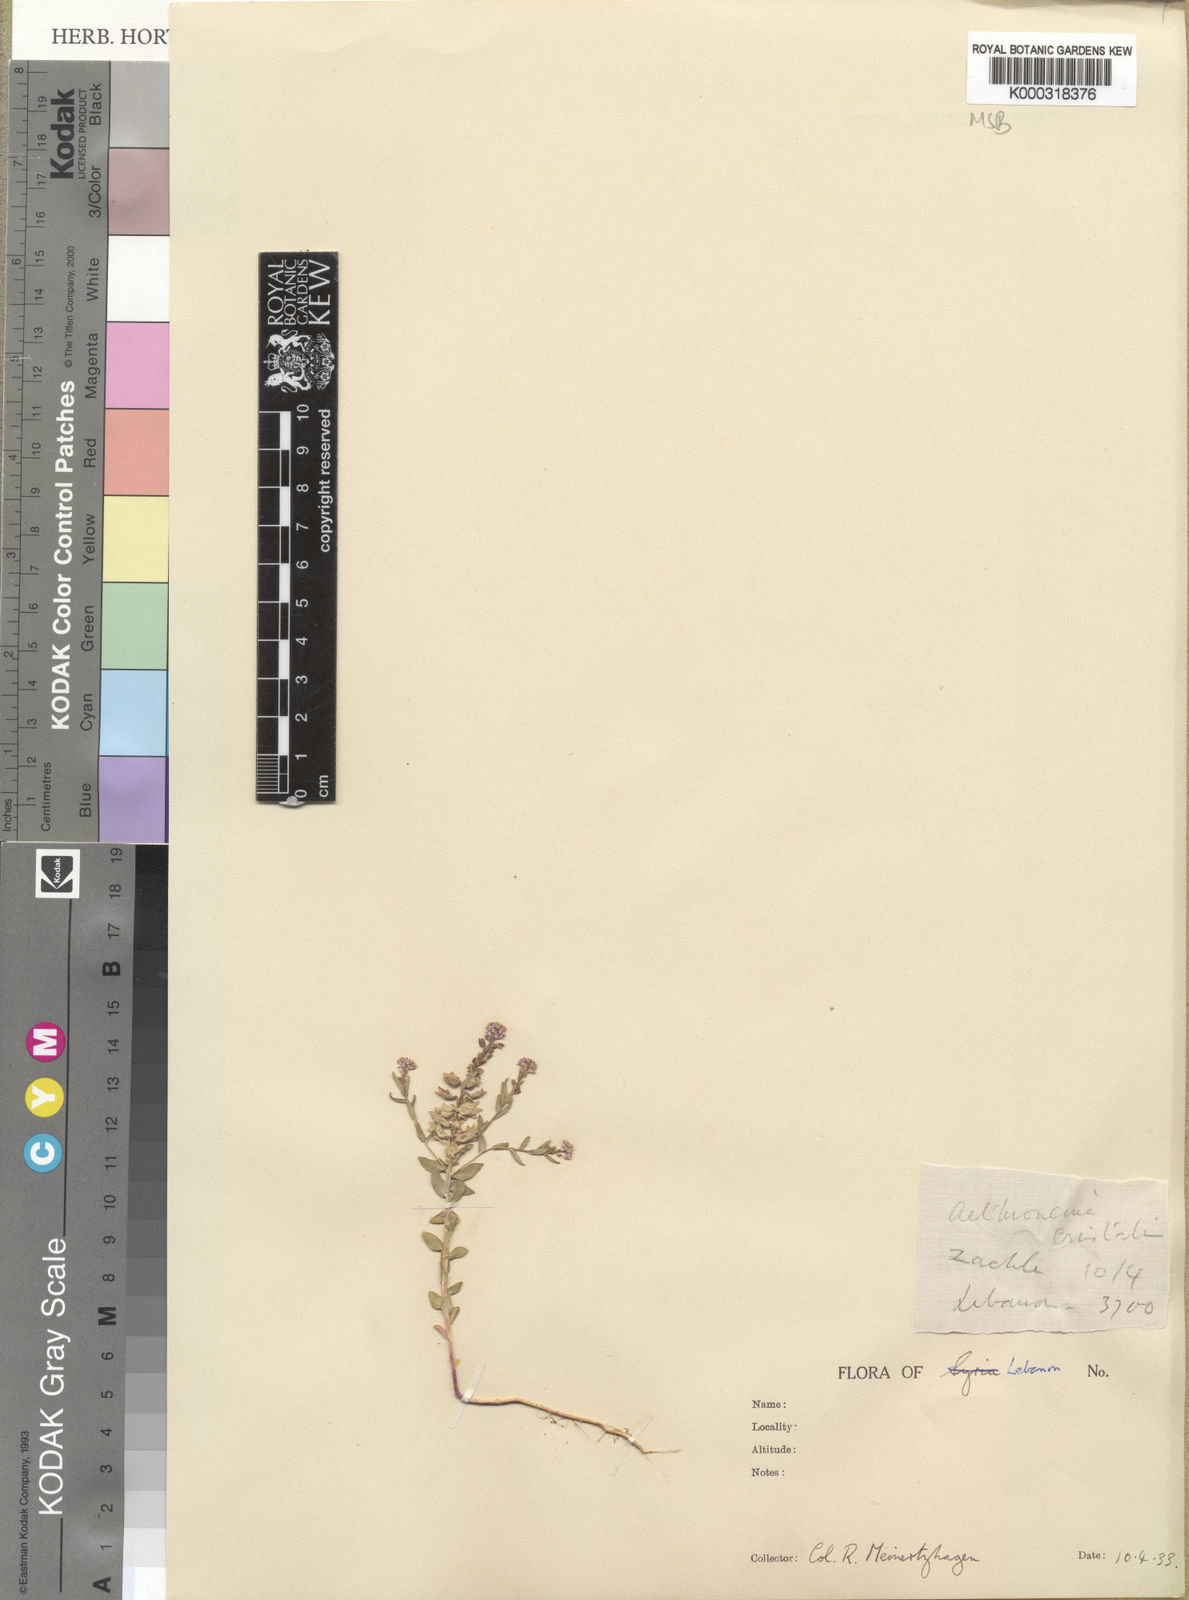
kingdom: Plantae
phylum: Tracheophyta
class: Magnoliopsida
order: Brassicales
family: Brassicaceae
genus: Aethionema
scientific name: Aethionema carneum
